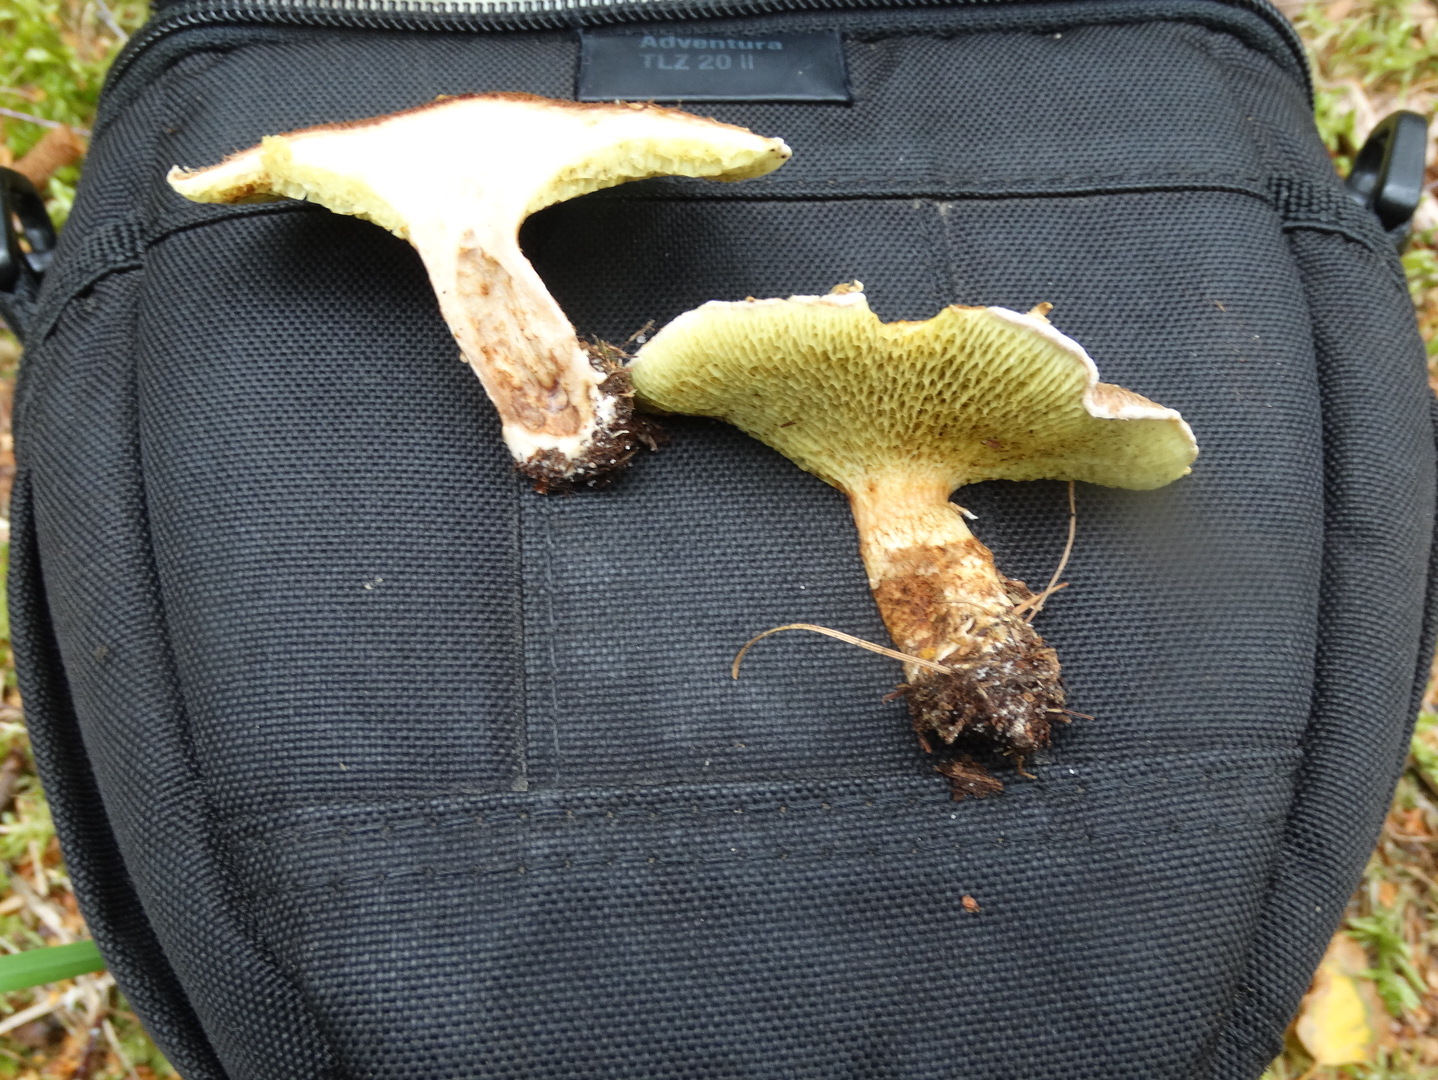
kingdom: Fungi
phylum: Basidiomycota
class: Agaricomycetes
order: Boletales
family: Suillaceae
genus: Suillus
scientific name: Suillus cavipes
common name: hulstokket slimrørhat
